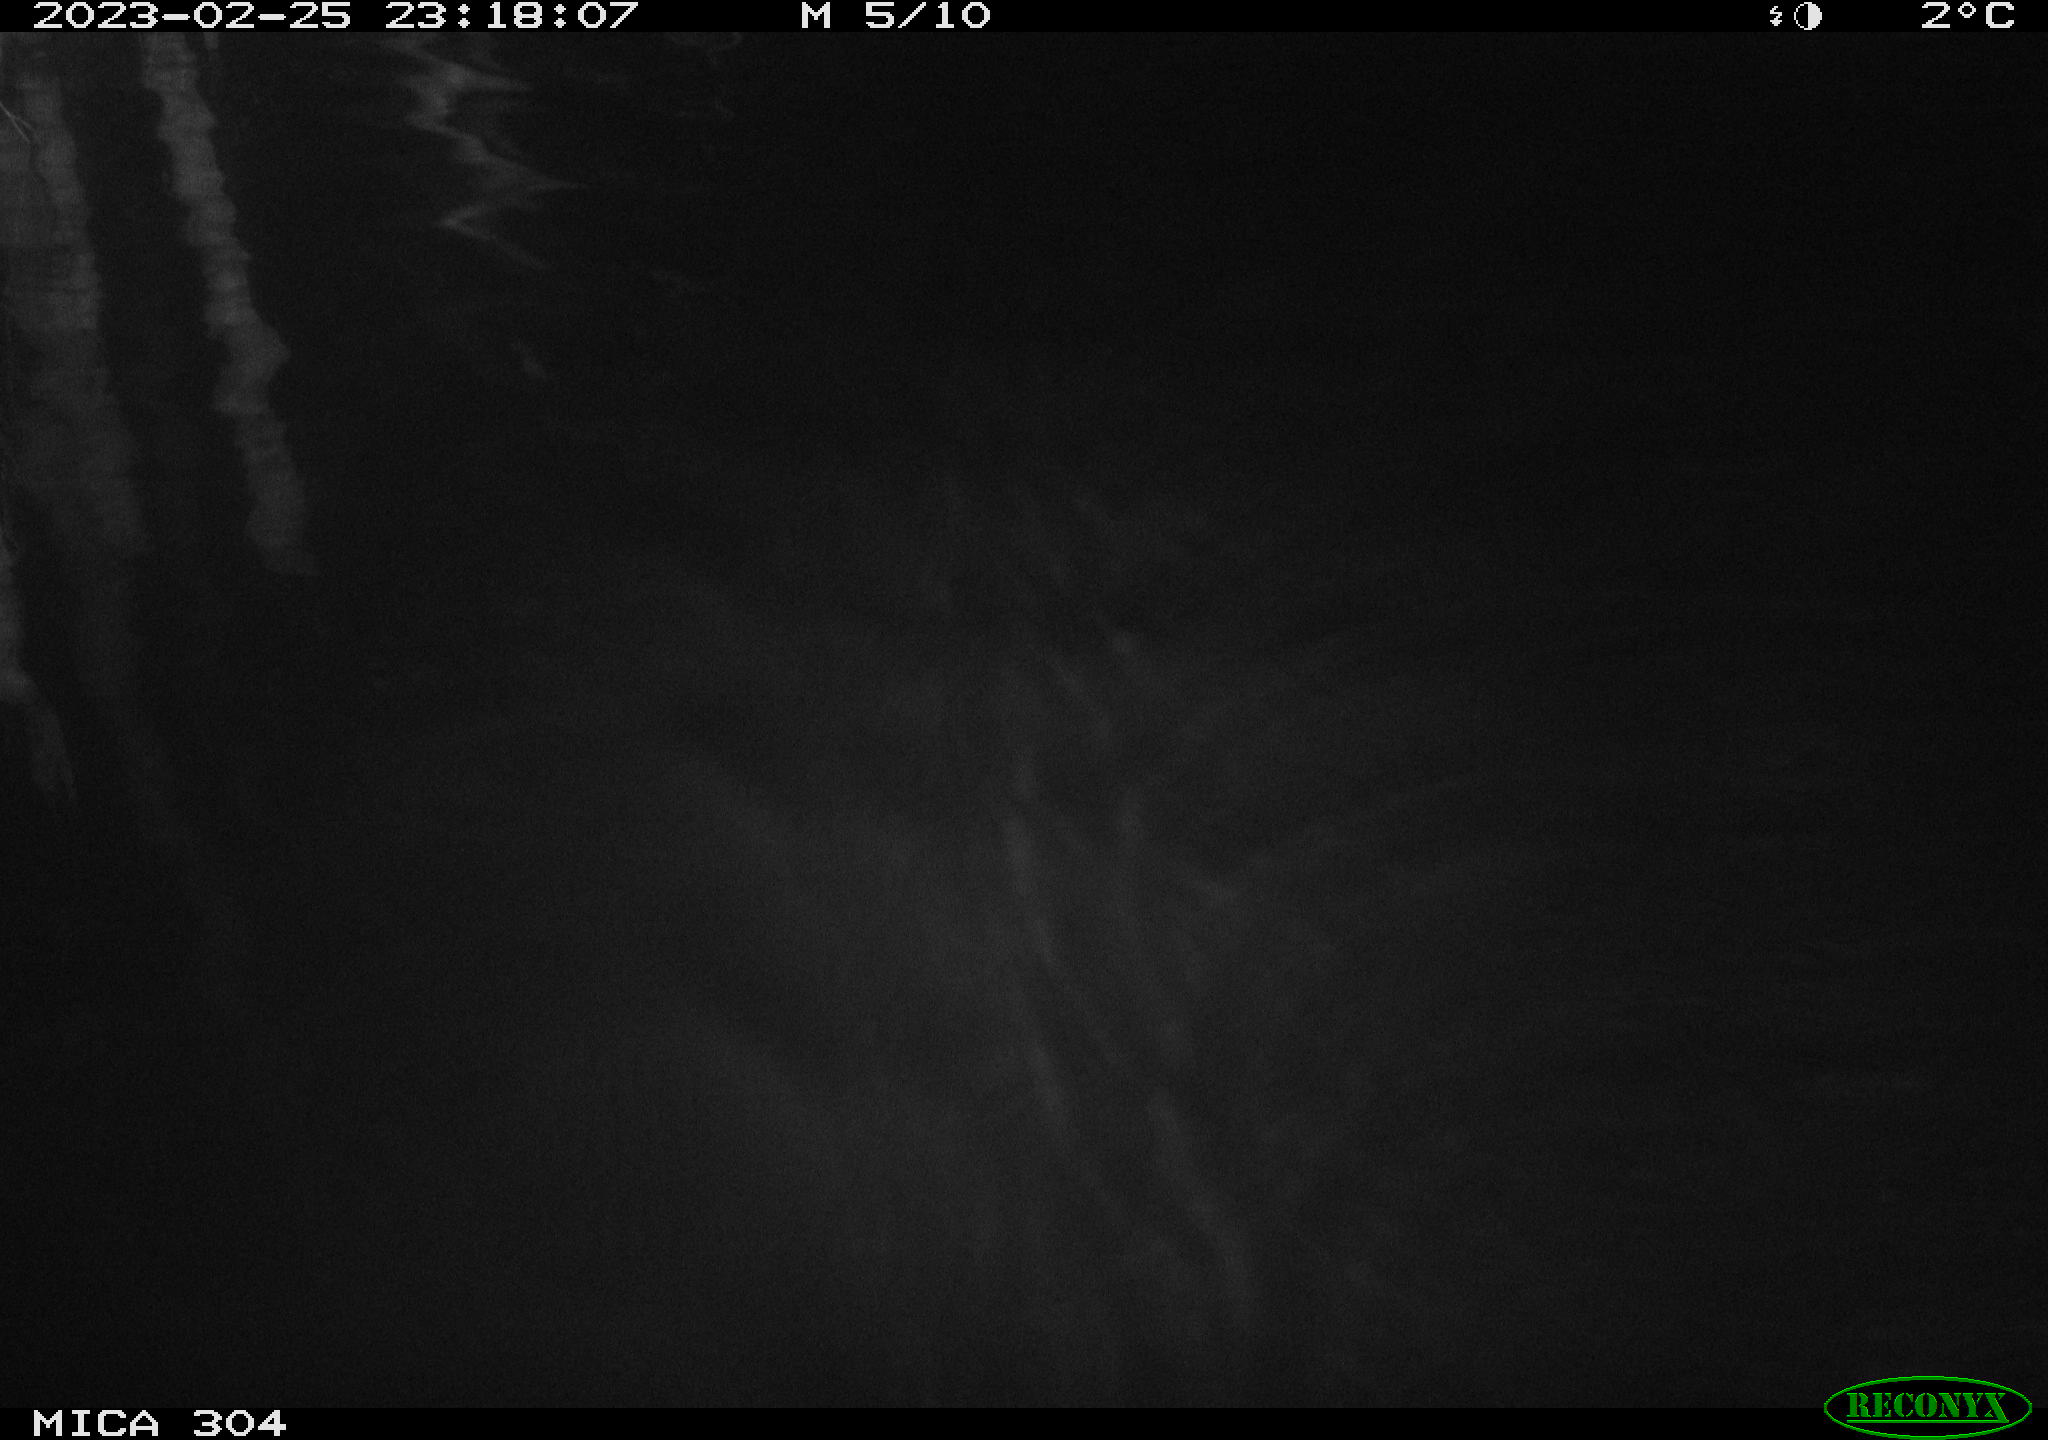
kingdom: Animalia
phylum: Chordata
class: Mammalia
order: Rodentia
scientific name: Rodentia
